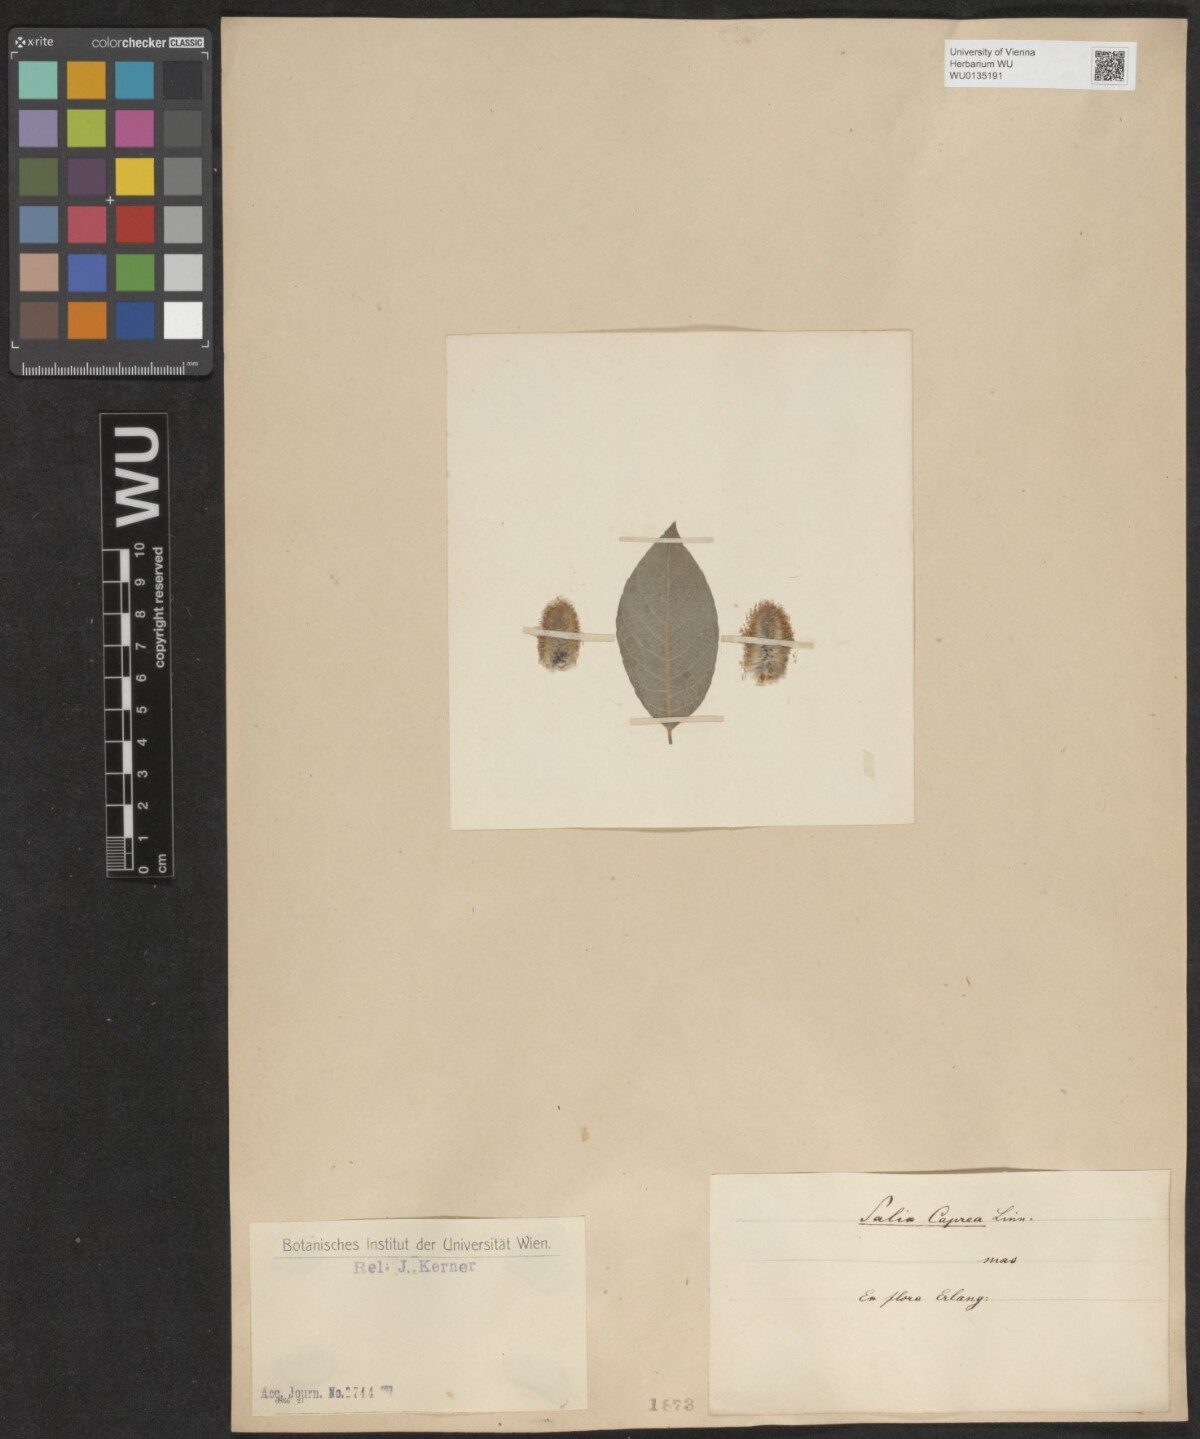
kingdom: Plantae
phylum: Tracheophyta
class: Magnoliopsida
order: Malpighiales
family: Salicaceae
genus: Salix
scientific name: Salix caprea
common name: Goat willow
